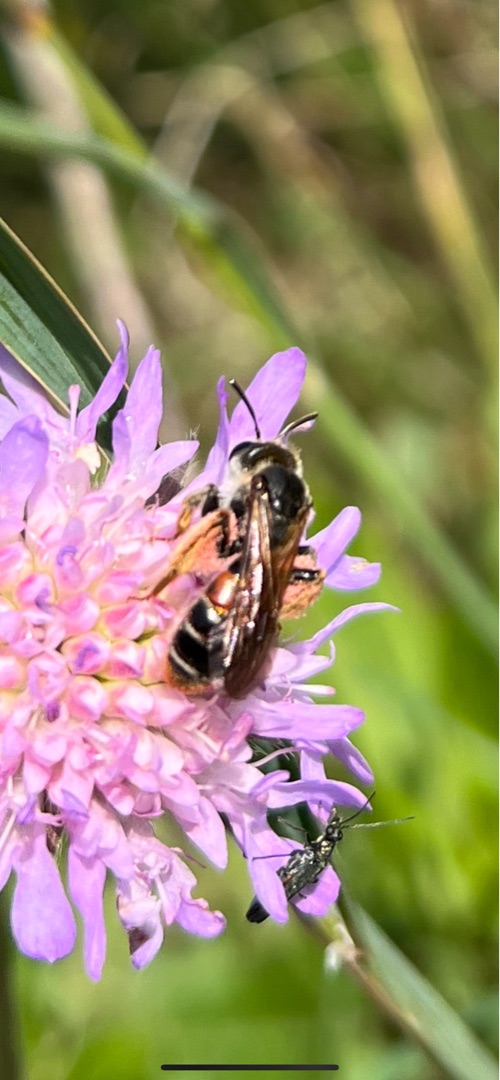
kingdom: Animalia
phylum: Arthropoda
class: Insecta
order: Hymenoptera
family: Andrenidae
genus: Andrena
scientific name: Andrena hattorfiana
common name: Blåhatjordbi
